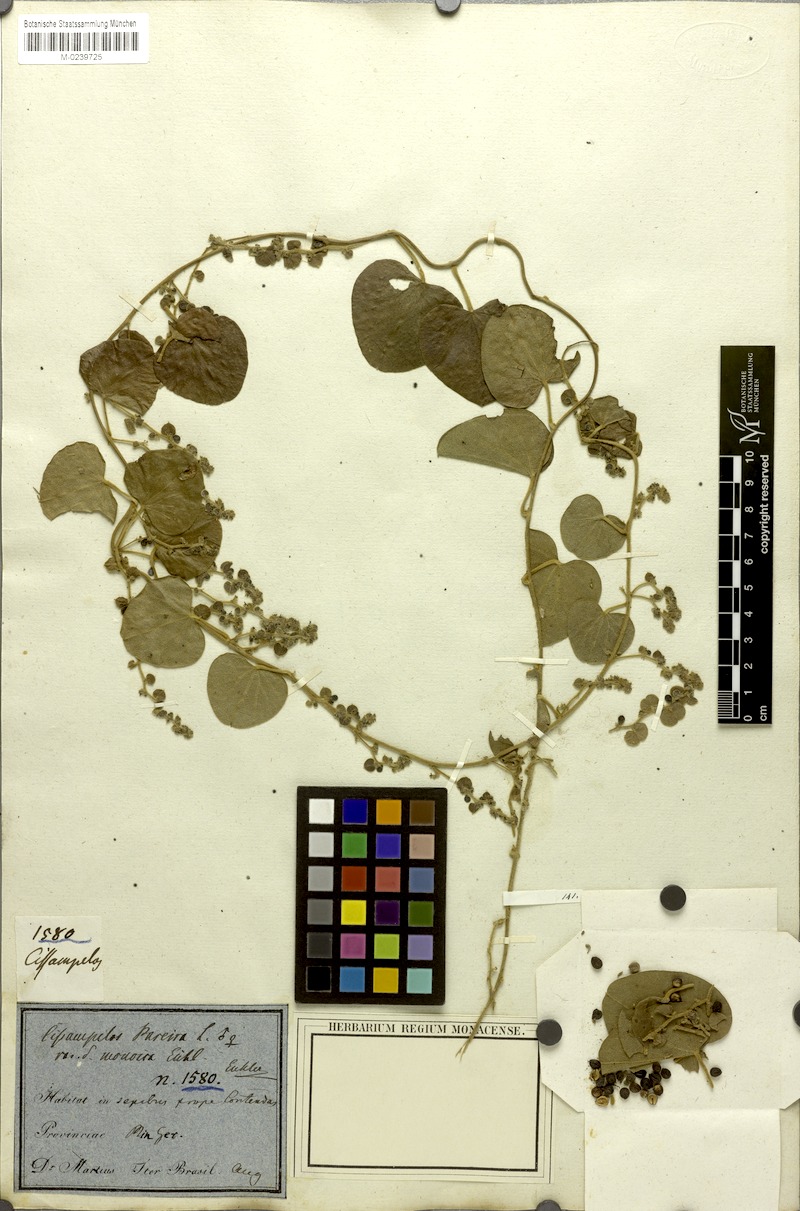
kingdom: Plantae
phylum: Tracheophyta
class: Magnoliopsida
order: Ranunculales
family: Menispermaceae
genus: Cissampelos
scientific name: Cissampelos pareira
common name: Velvetleaf
